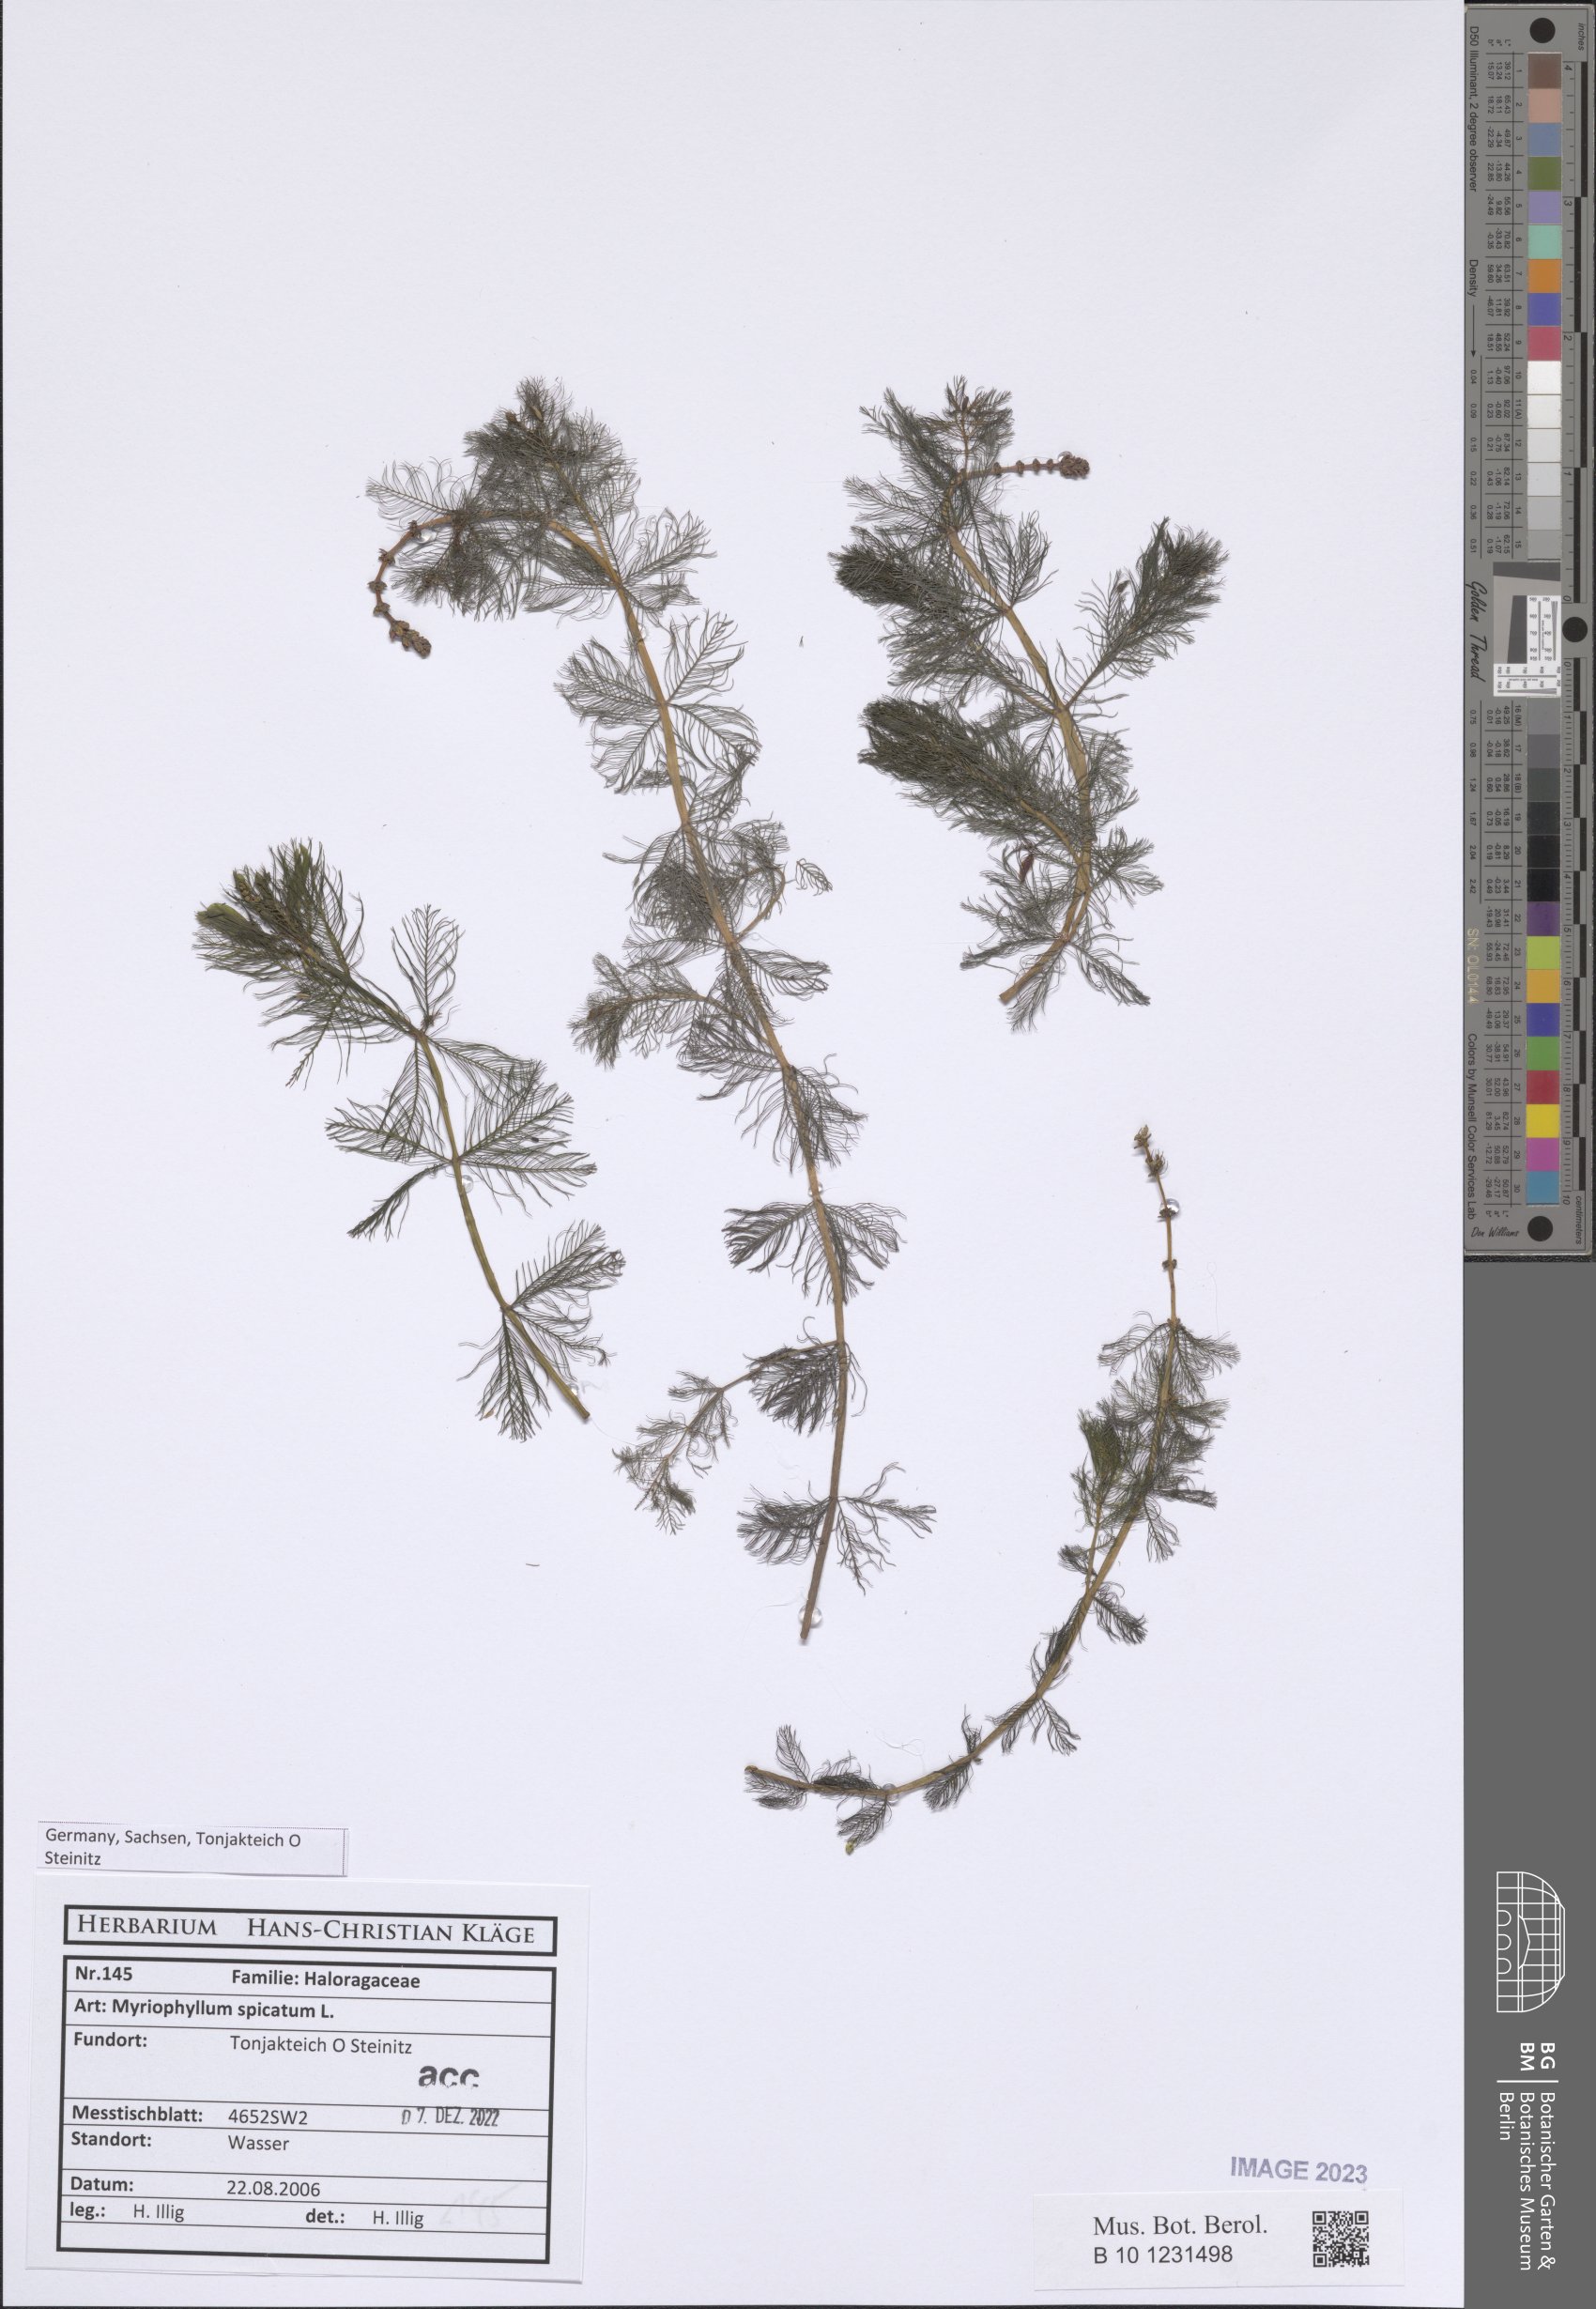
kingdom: Plantae
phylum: Tracheophyta
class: Magnoliopsida
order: Saxifragales
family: Haloragaceae
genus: Myriophyllum
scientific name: Myriophyllum spicatum
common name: Spiked water-milfoil
